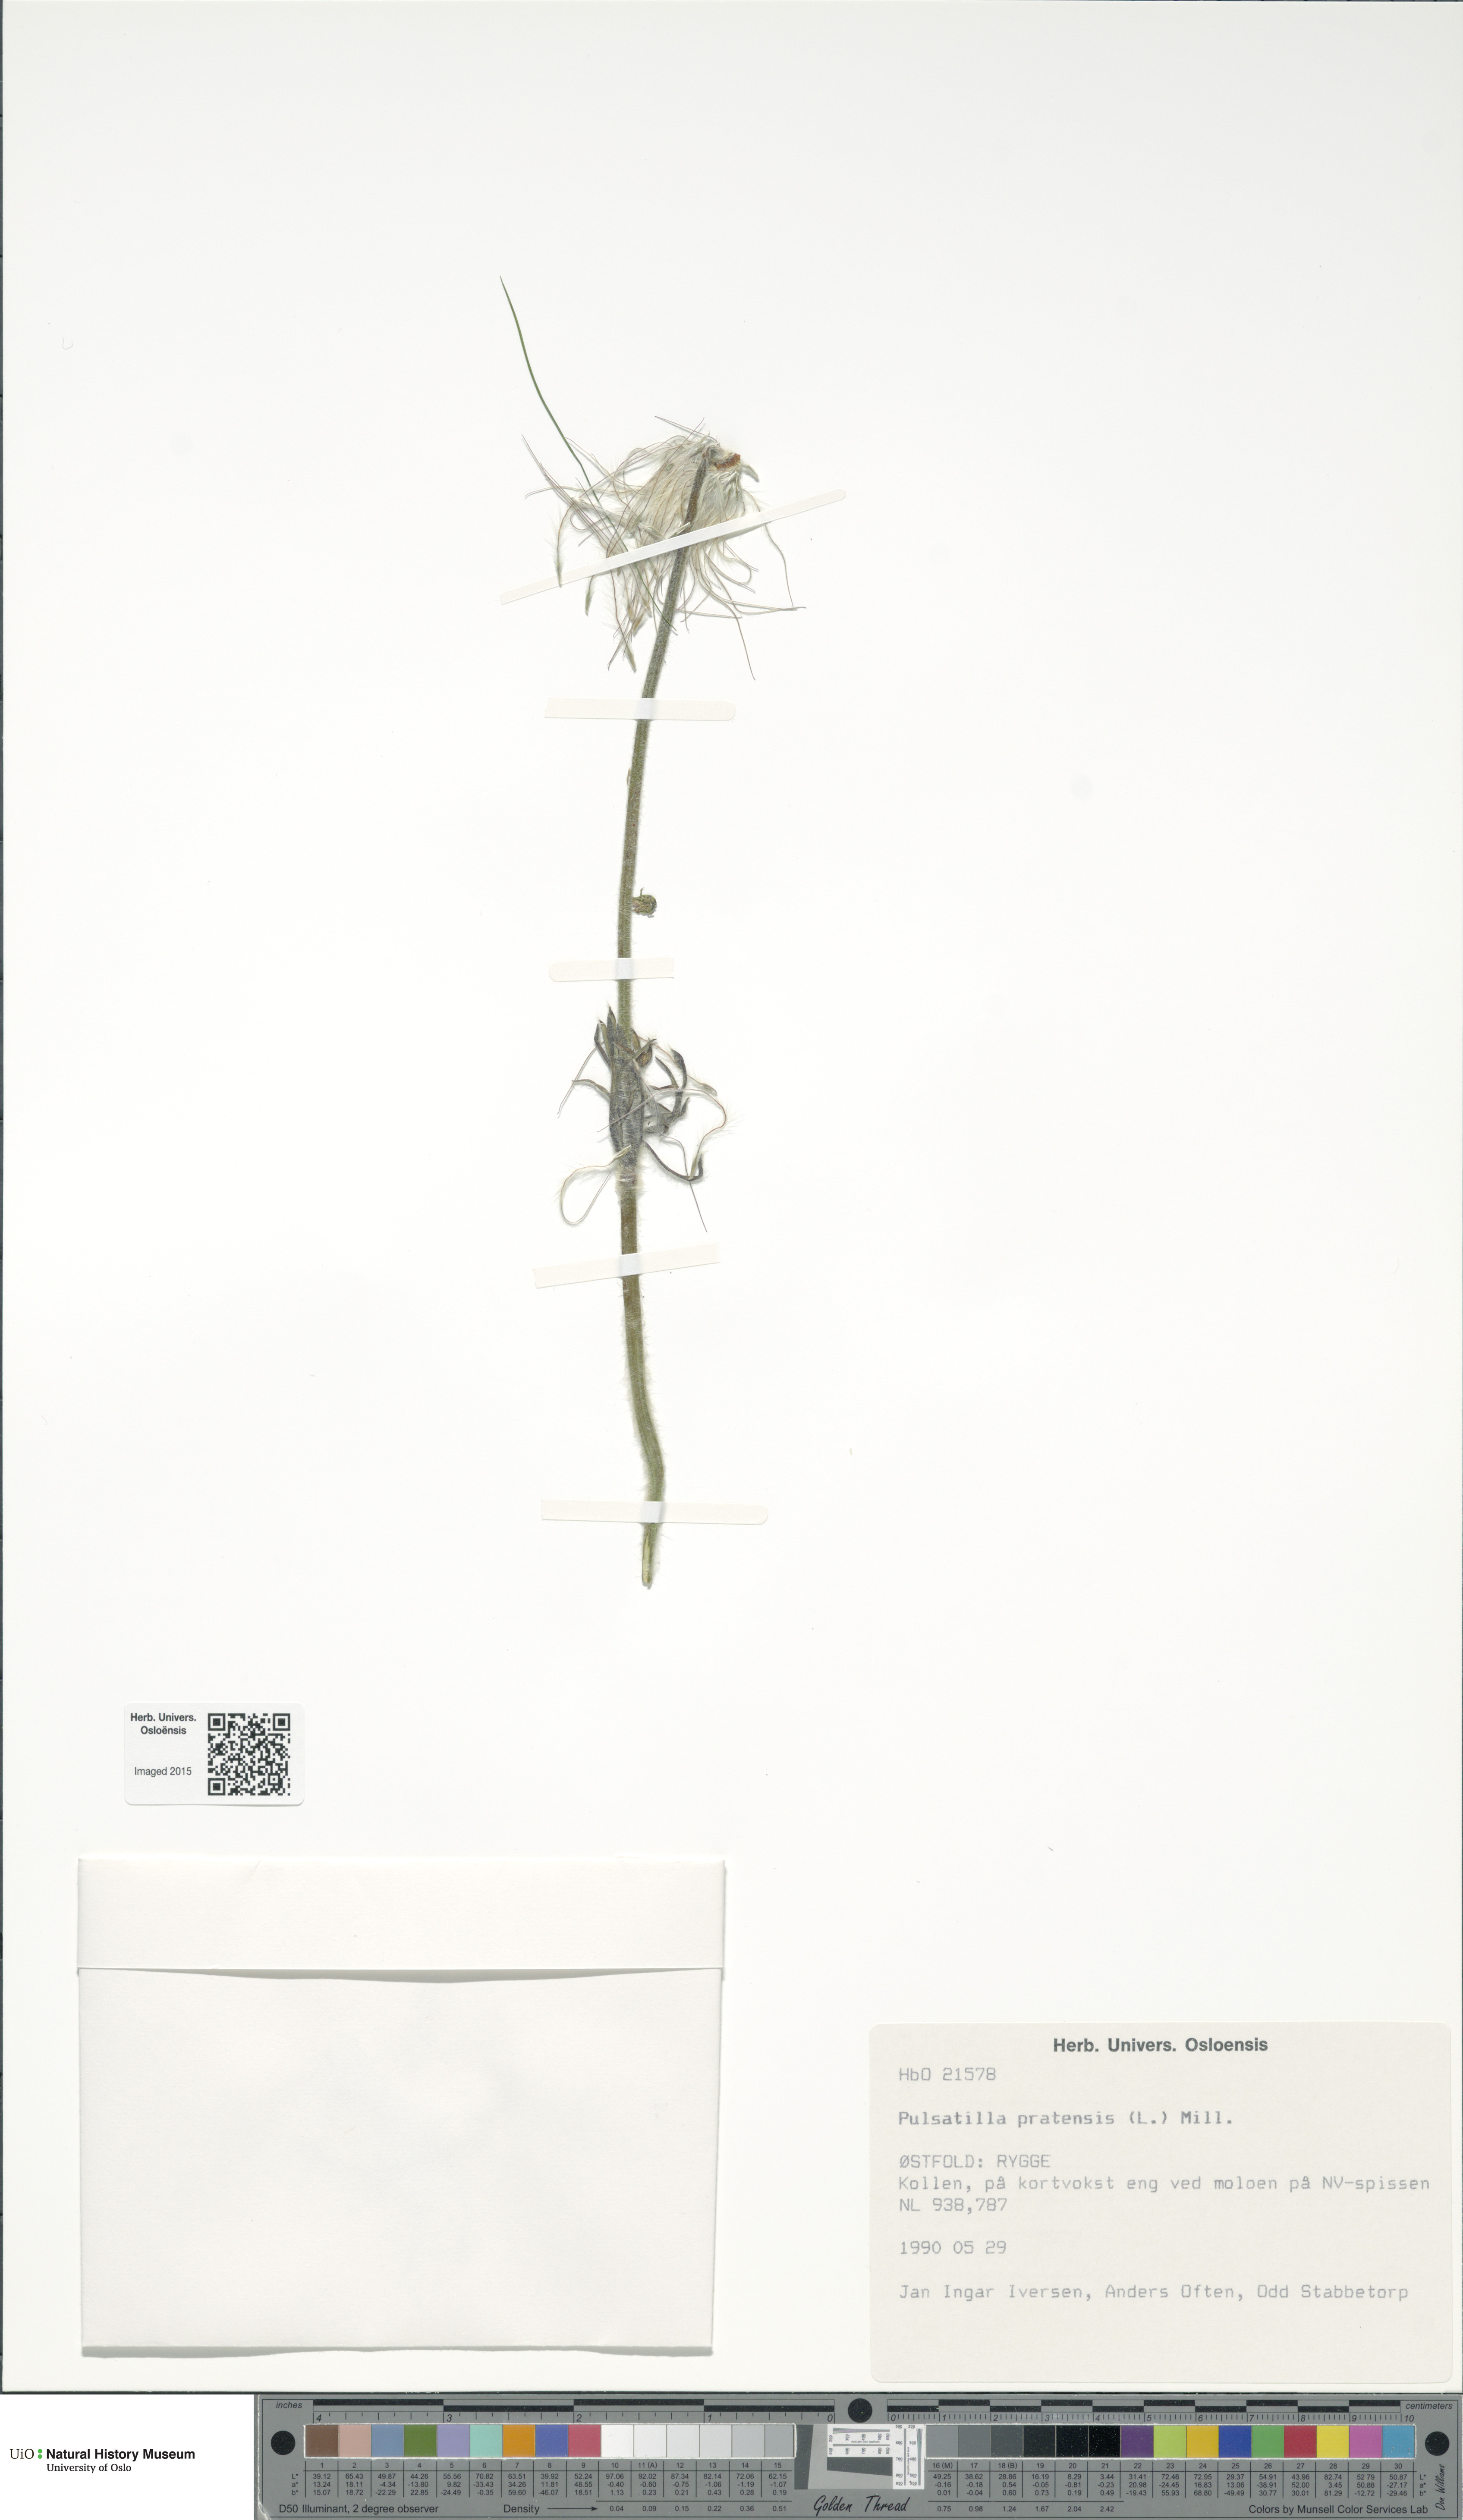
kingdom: Plantae
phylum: Tracheophyta
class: Magnoliopsida
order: Ranunculales
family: Ranunculaceae
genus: Pulsatilla
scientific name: Pulsatilla pratensis
